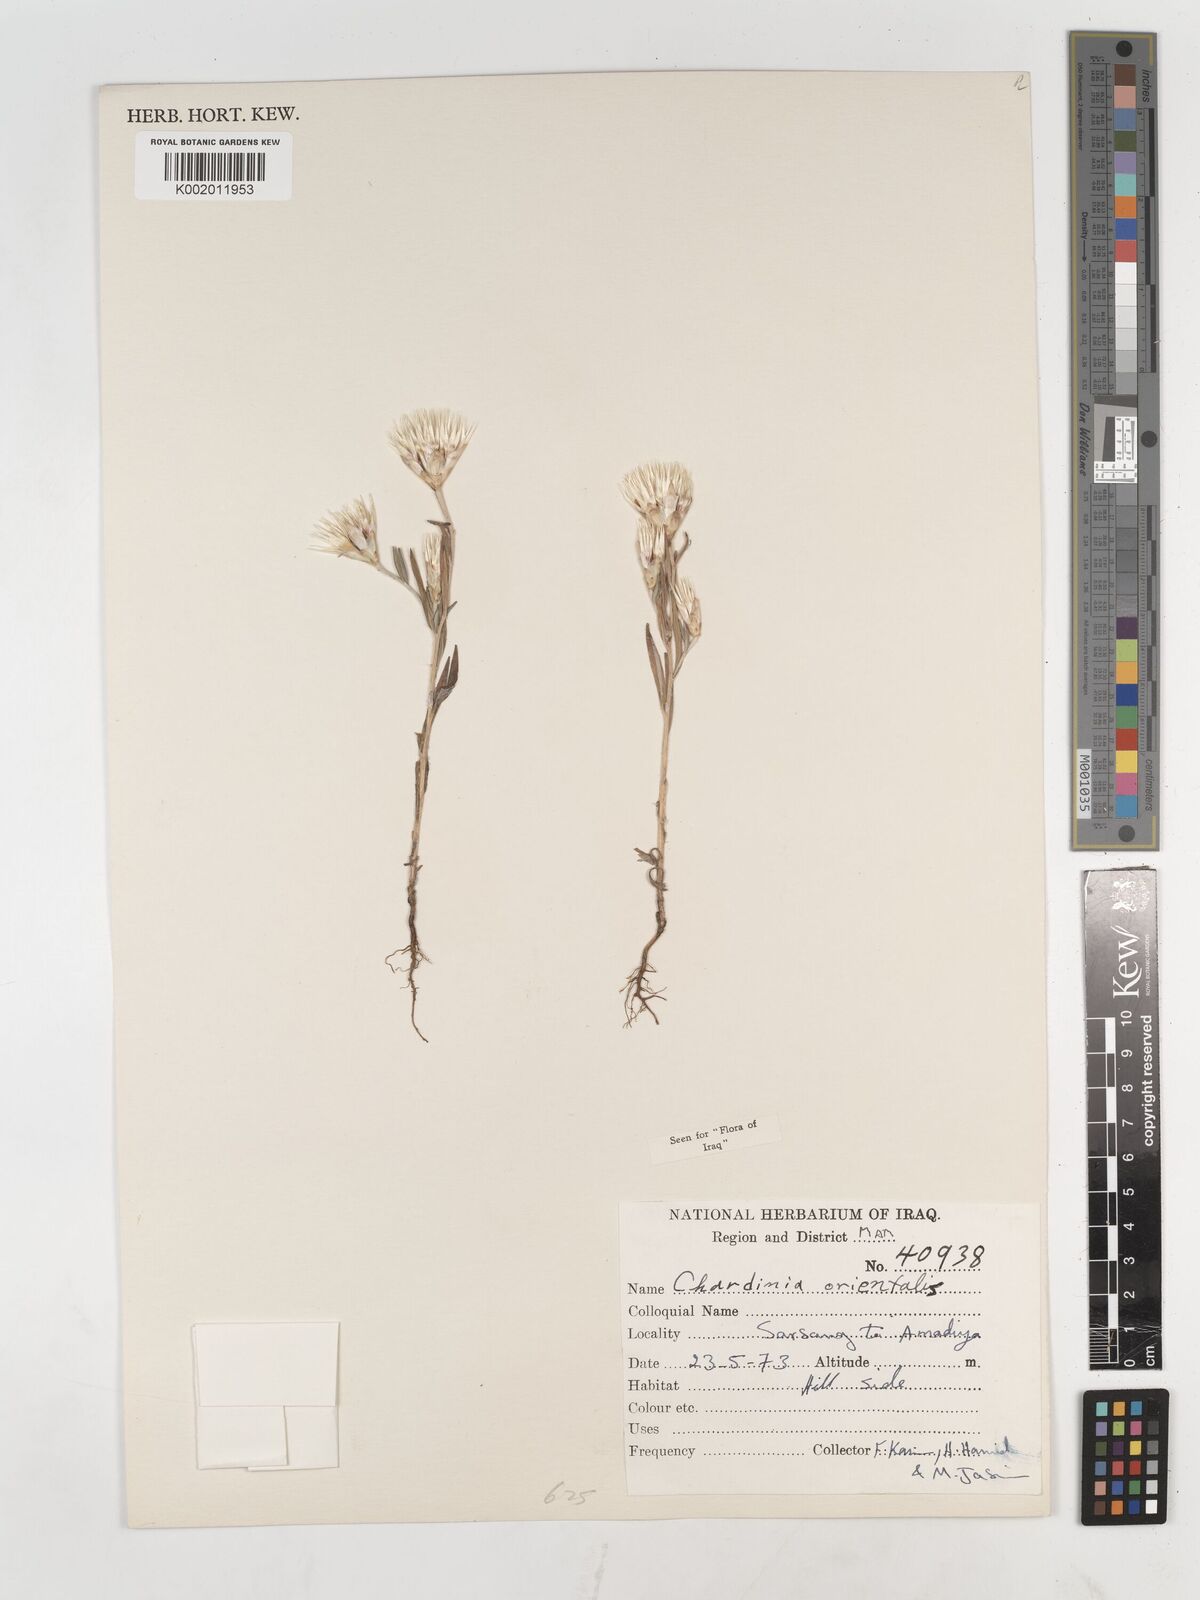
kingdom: Plantae
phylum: Tracheophyta
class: Magnoliopsida
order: Asterales
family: Asteraceae
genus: Chardinia
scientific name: Chardinia orientalis
